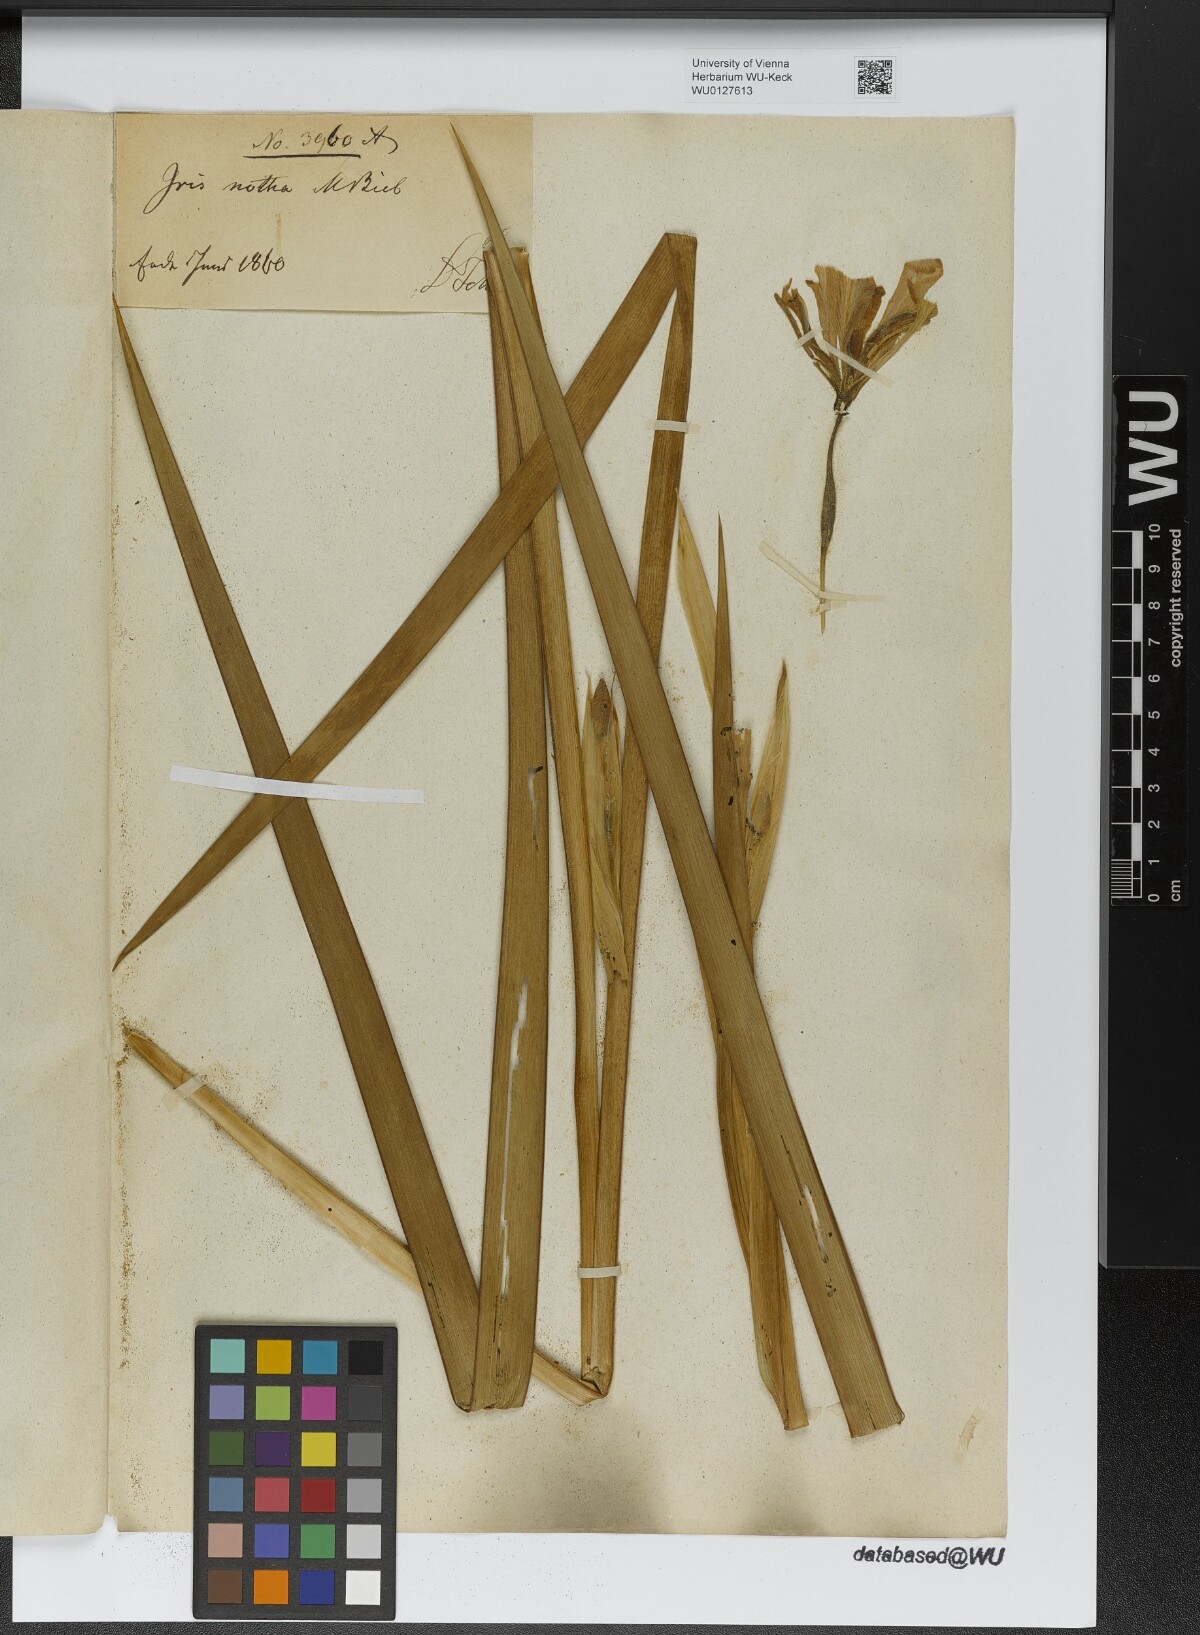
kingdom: Plantae
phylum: Tracheophyta
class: Liliopsida
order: Asparagales
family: Iridaceae
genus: Iris
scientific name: Iris notha
